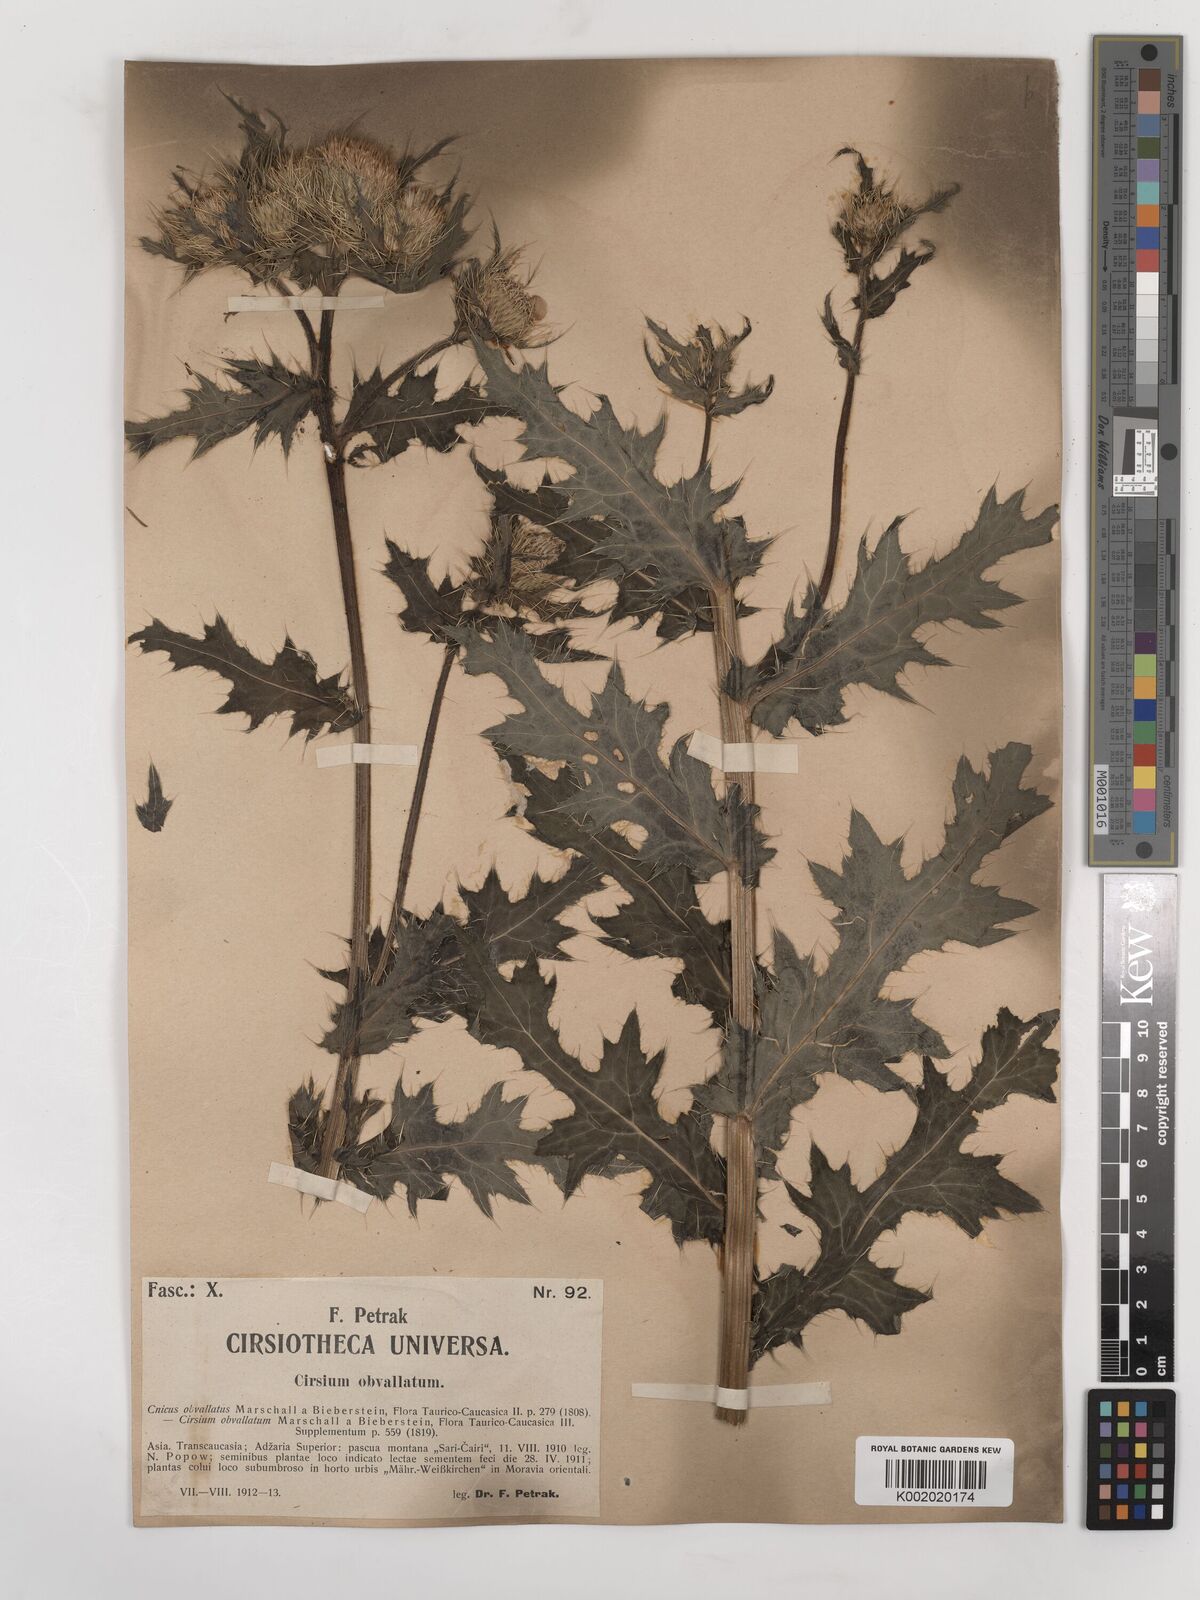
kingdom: Plantae
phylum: Tracheophyta
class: Magnoliopsida
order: Asterales
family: Asteraceae
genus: Cirsium
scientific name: Cirsium obvallatum
